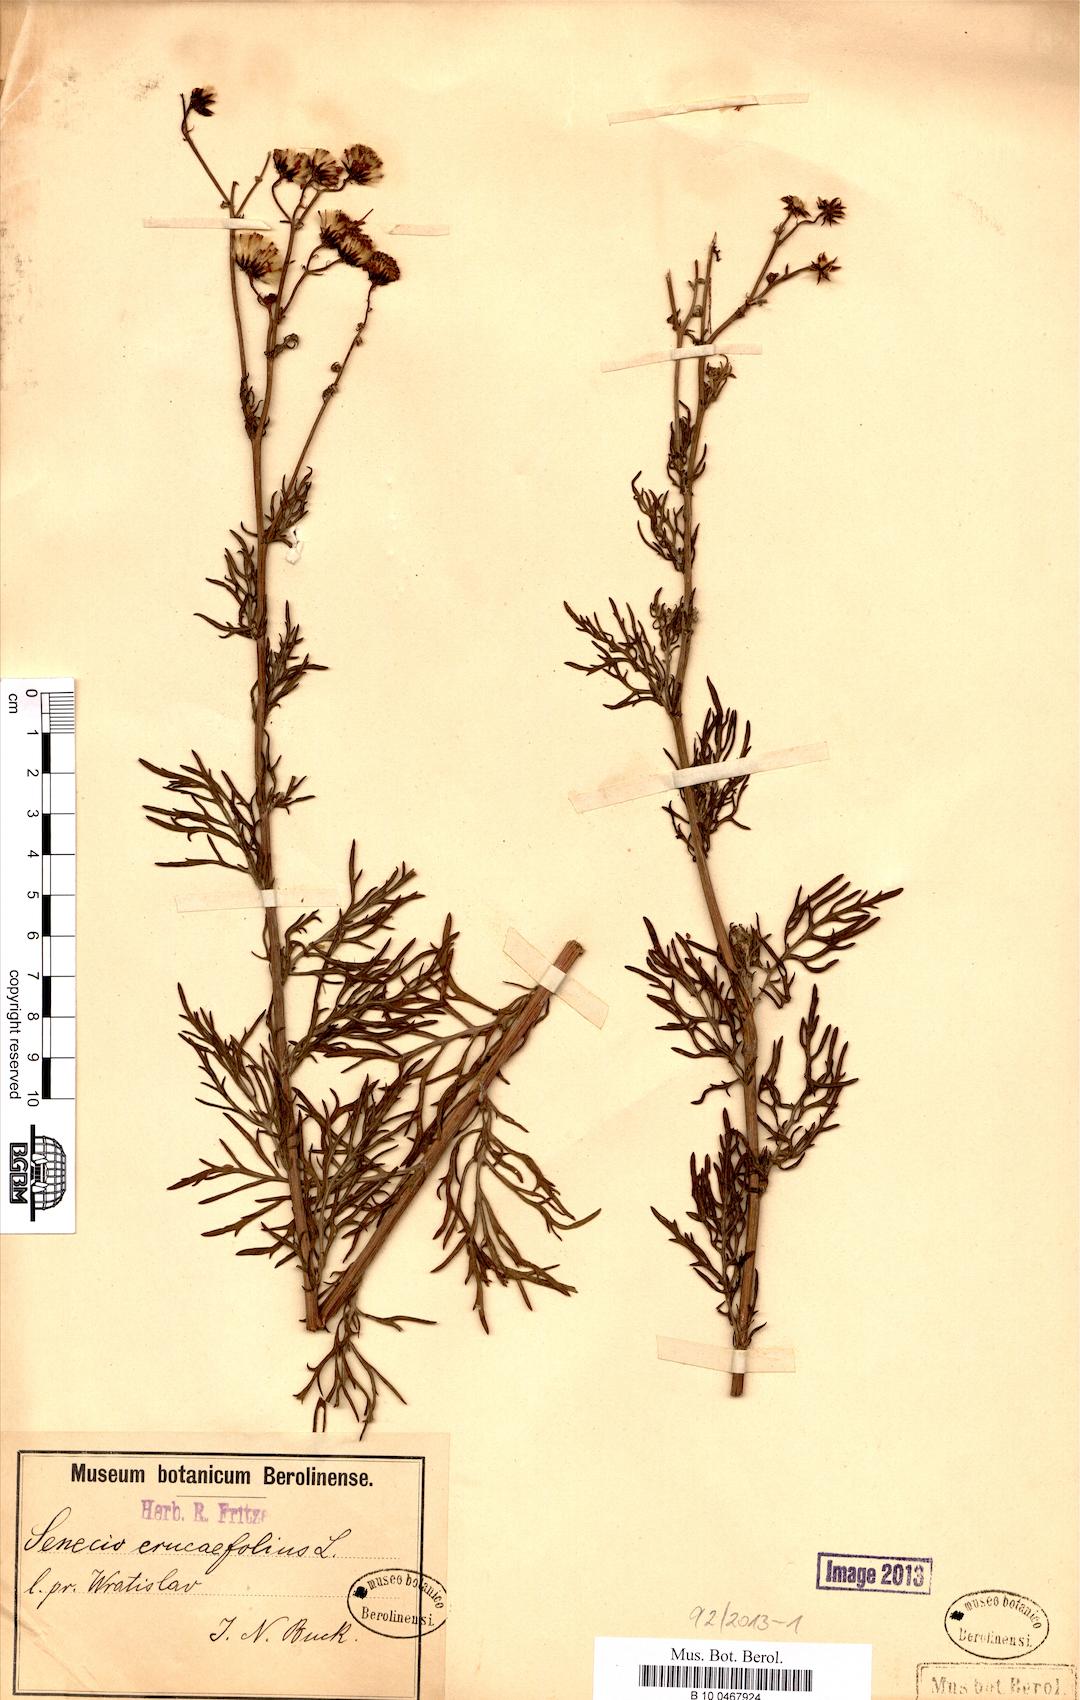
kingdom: Plantae
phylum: Tracheophyta
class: Magnoliopsida
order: Asterales
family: Asteraceae
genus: Jacobaea
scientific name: Jacobaea erucifolia
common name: Hoary ragwort
